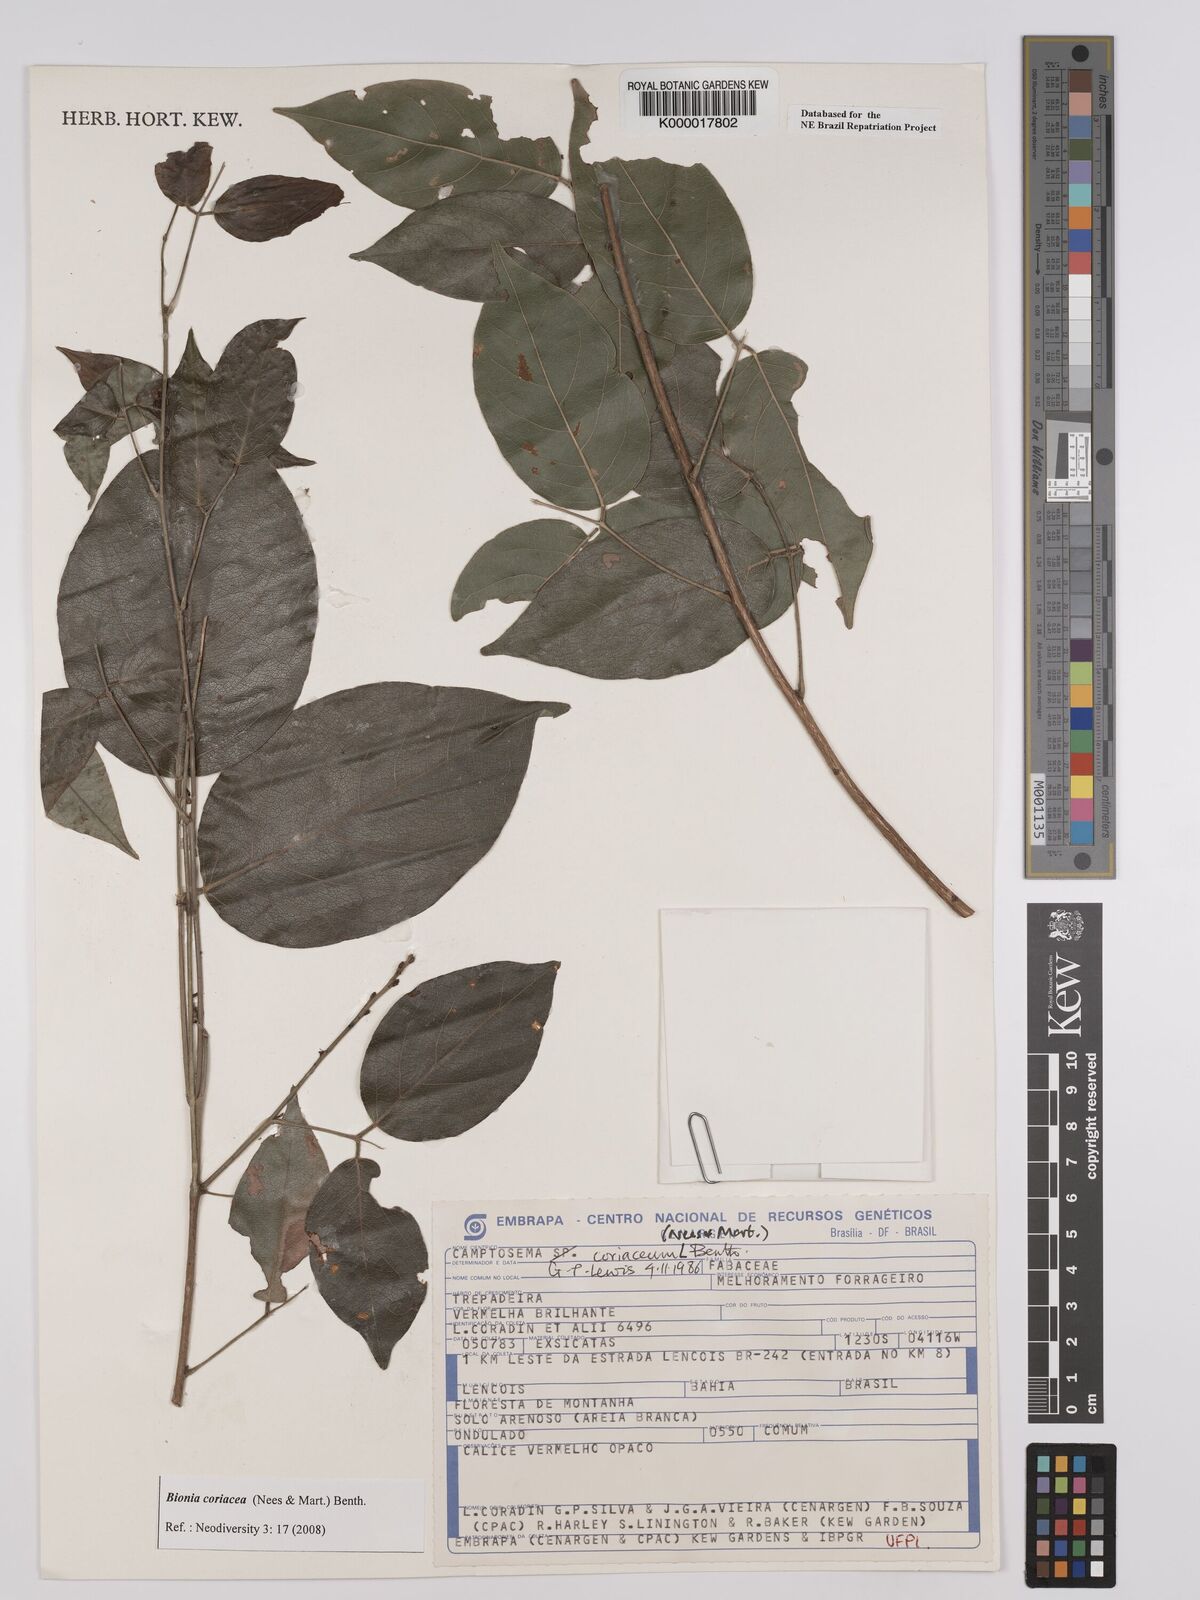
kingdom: Plantae
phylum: Tracheophyta
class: Magnoliopsida
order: Fabales
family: Fabaceae
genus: Camptosema
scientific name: Camptosema coriaceum
